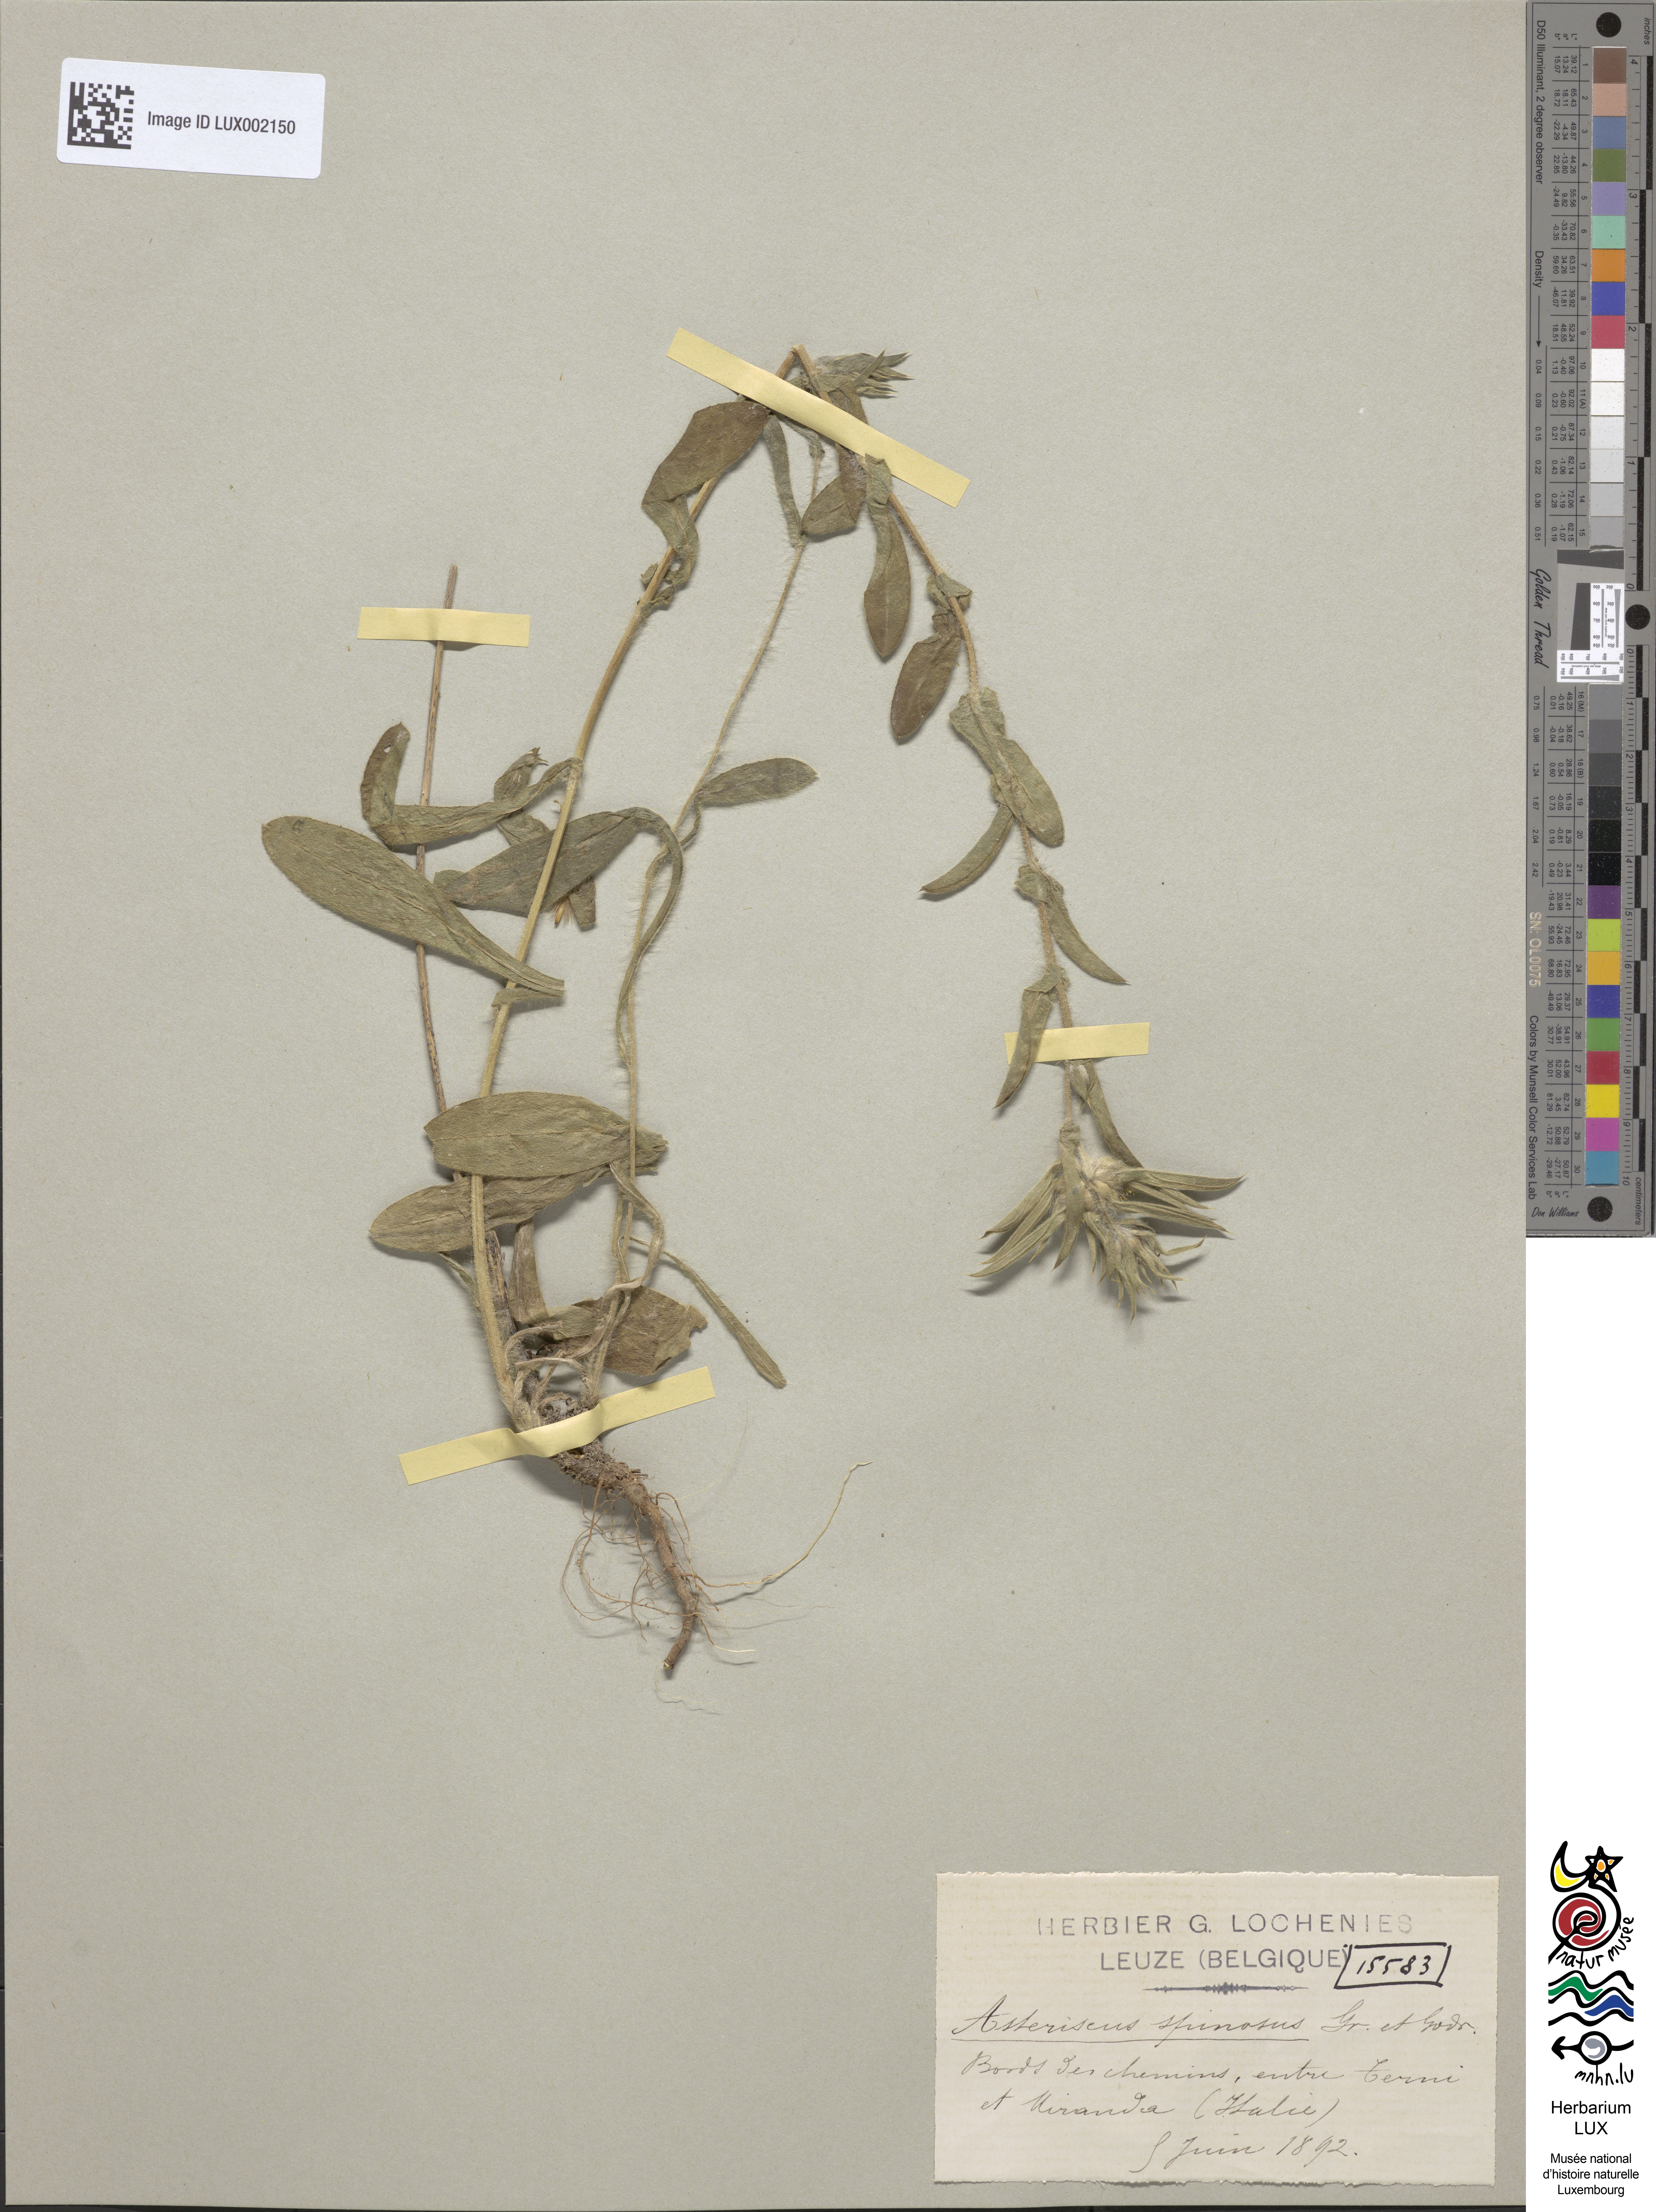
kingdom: Plantae
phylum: Tracheophyta
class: Magnoliopsida
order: Asterales
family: Asteraceae
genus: Pallenis
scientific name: Pallenis spinosa
